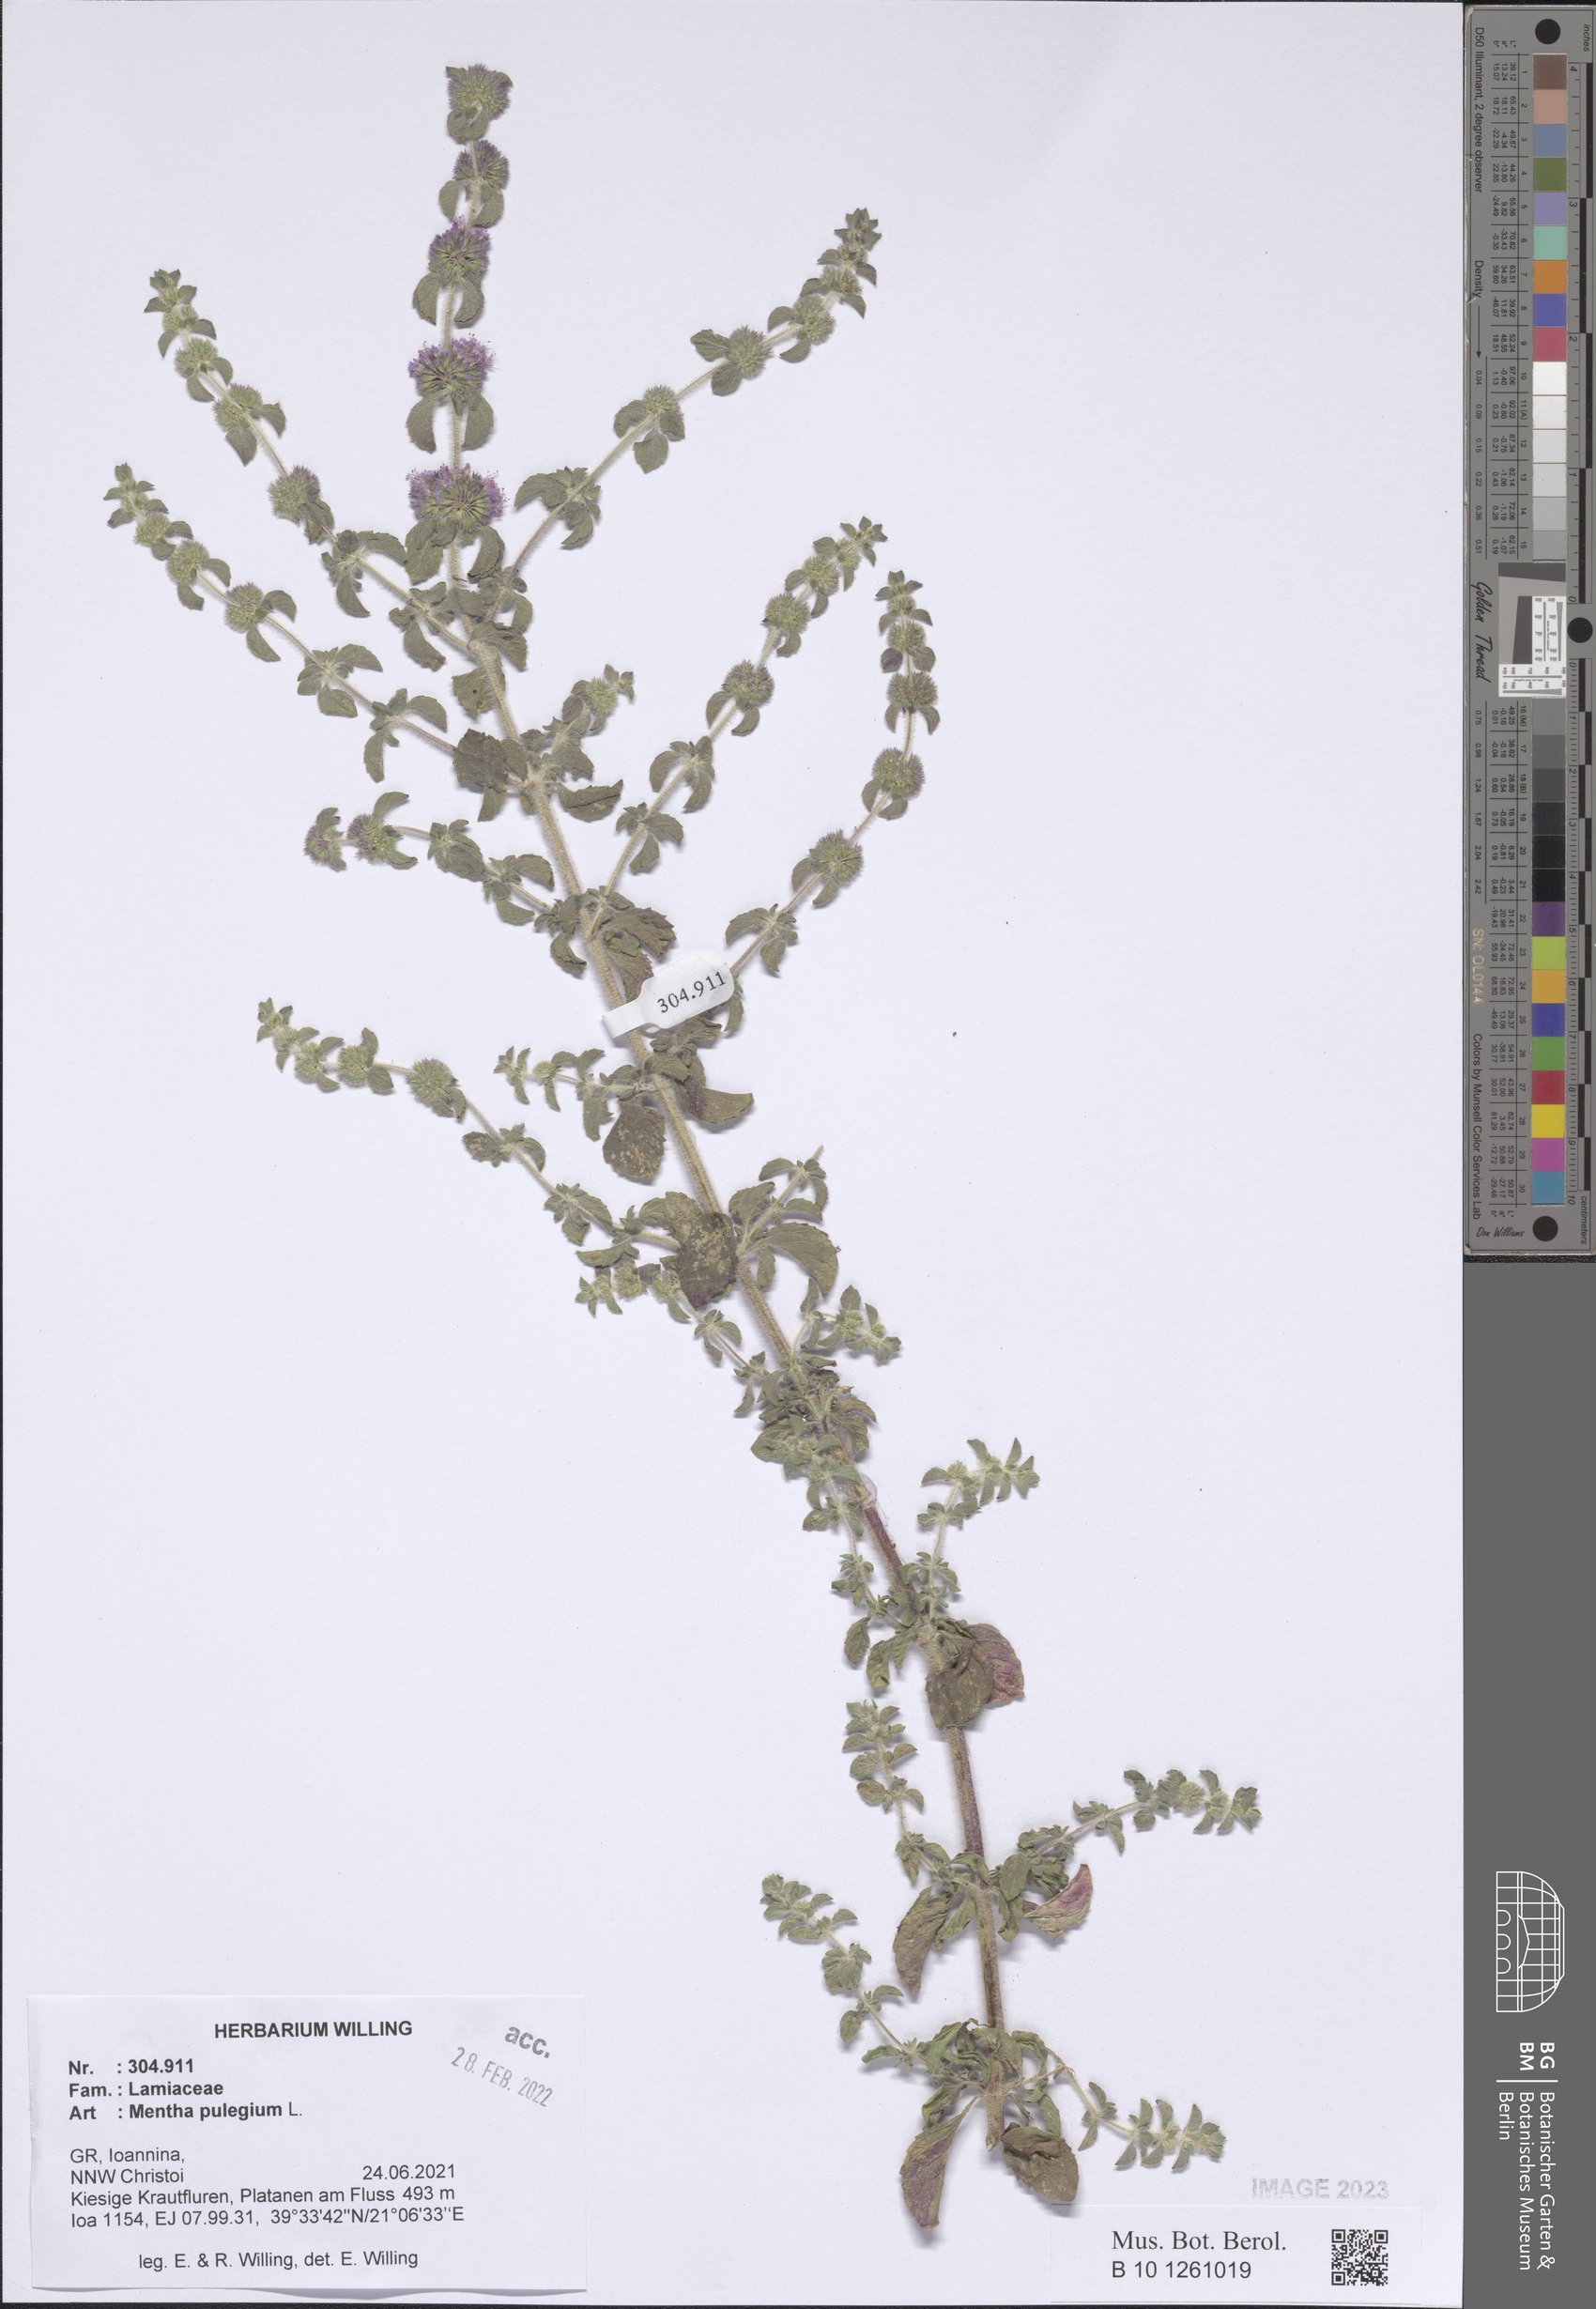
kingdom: Plantae
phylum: Tracheophyta
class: Magnoliopsida
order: Lamiales
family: Lamiaceae
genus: Mentha
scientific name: Mentha pulegium
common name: Pennyroyal
